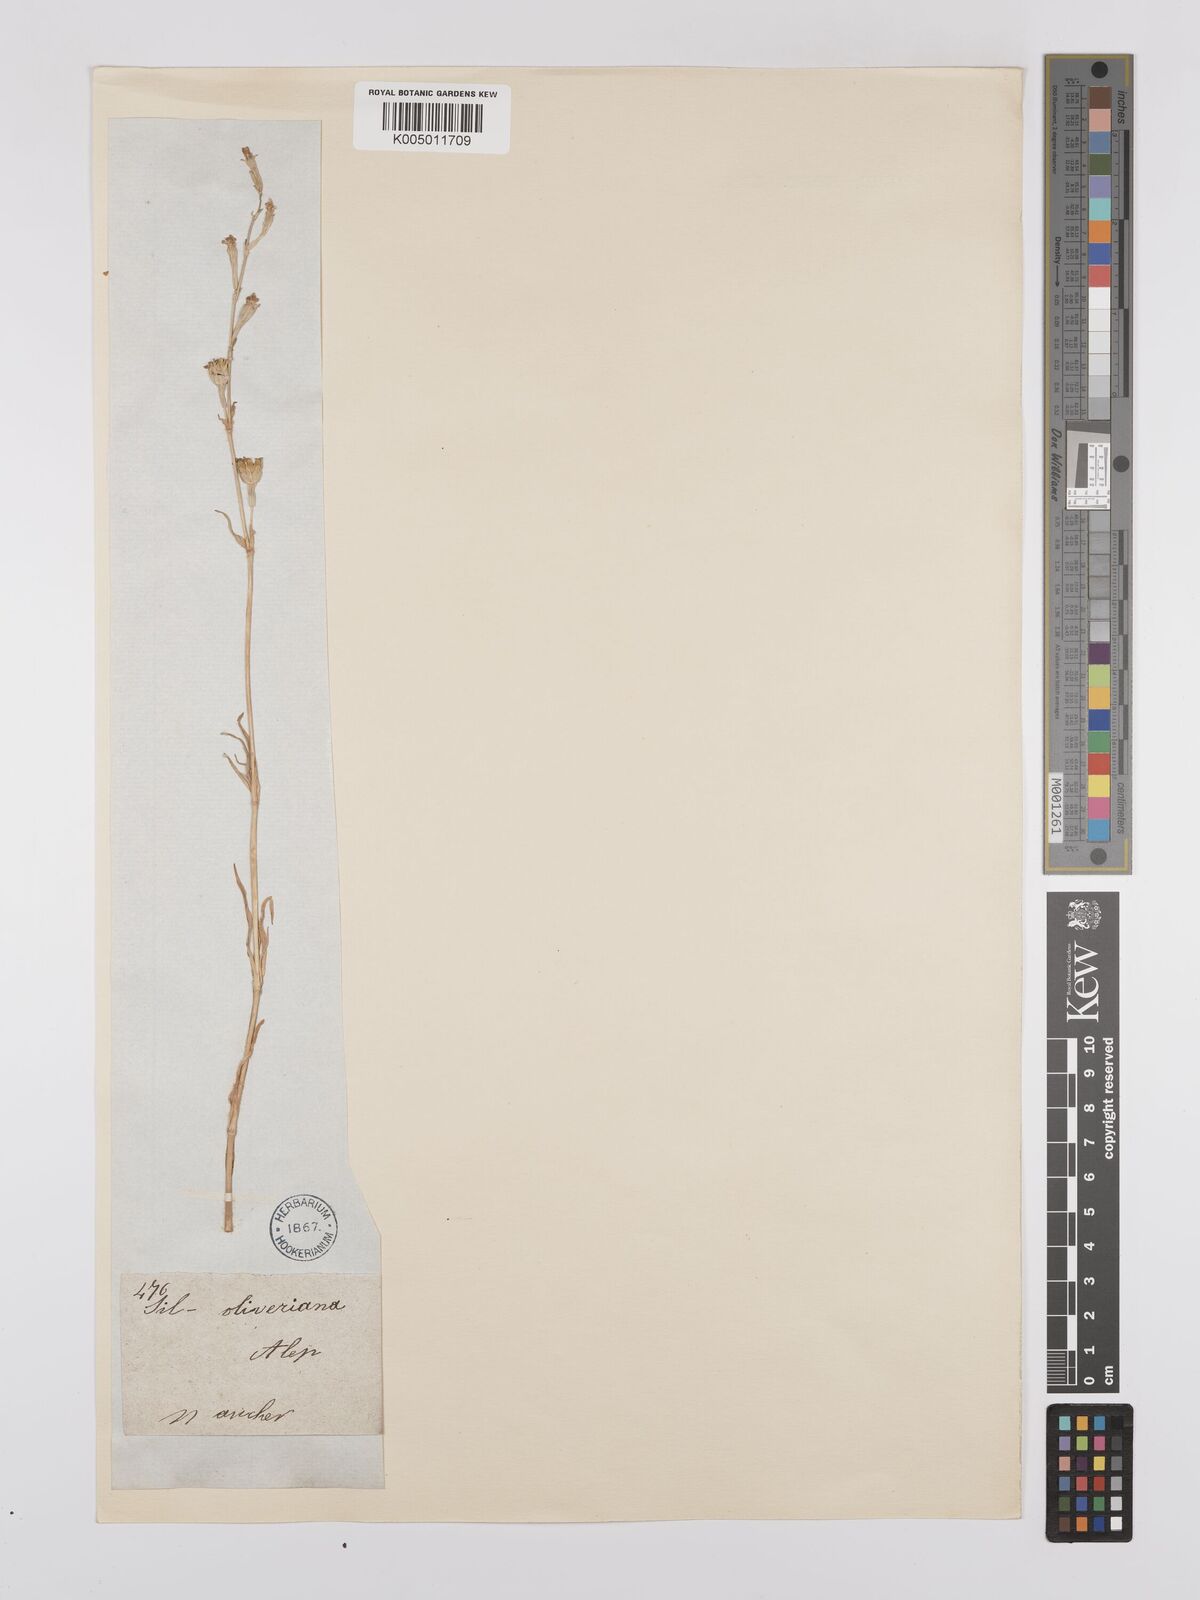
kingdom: Plantae
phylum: Tracheophyta
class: Magnoliopsida
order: Caryophyllales
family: Caryophyllaceae
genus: Silene
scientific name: Silene
